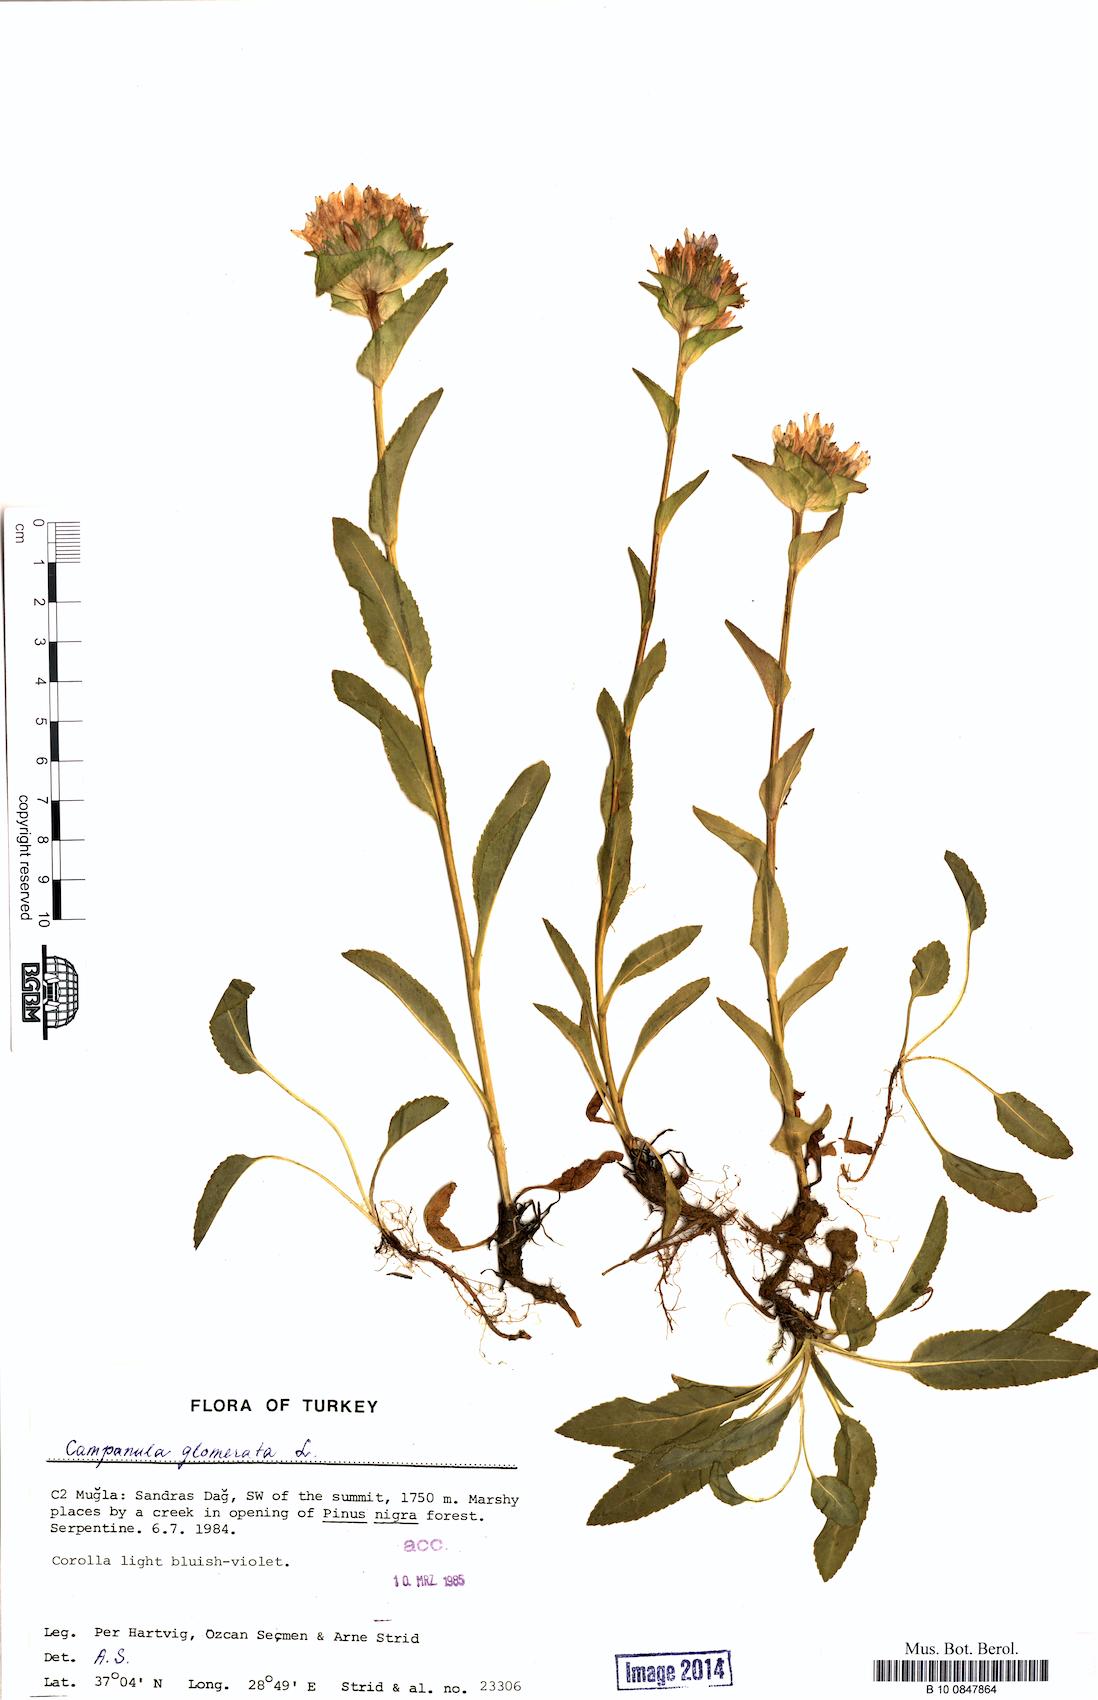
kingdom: Plantae
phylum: Tracheophyta
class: Magnoliopsida
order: Asterales
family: Campanulaceae
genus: Campanula
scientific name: Campanula glomerata
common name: Clustered bellflower
